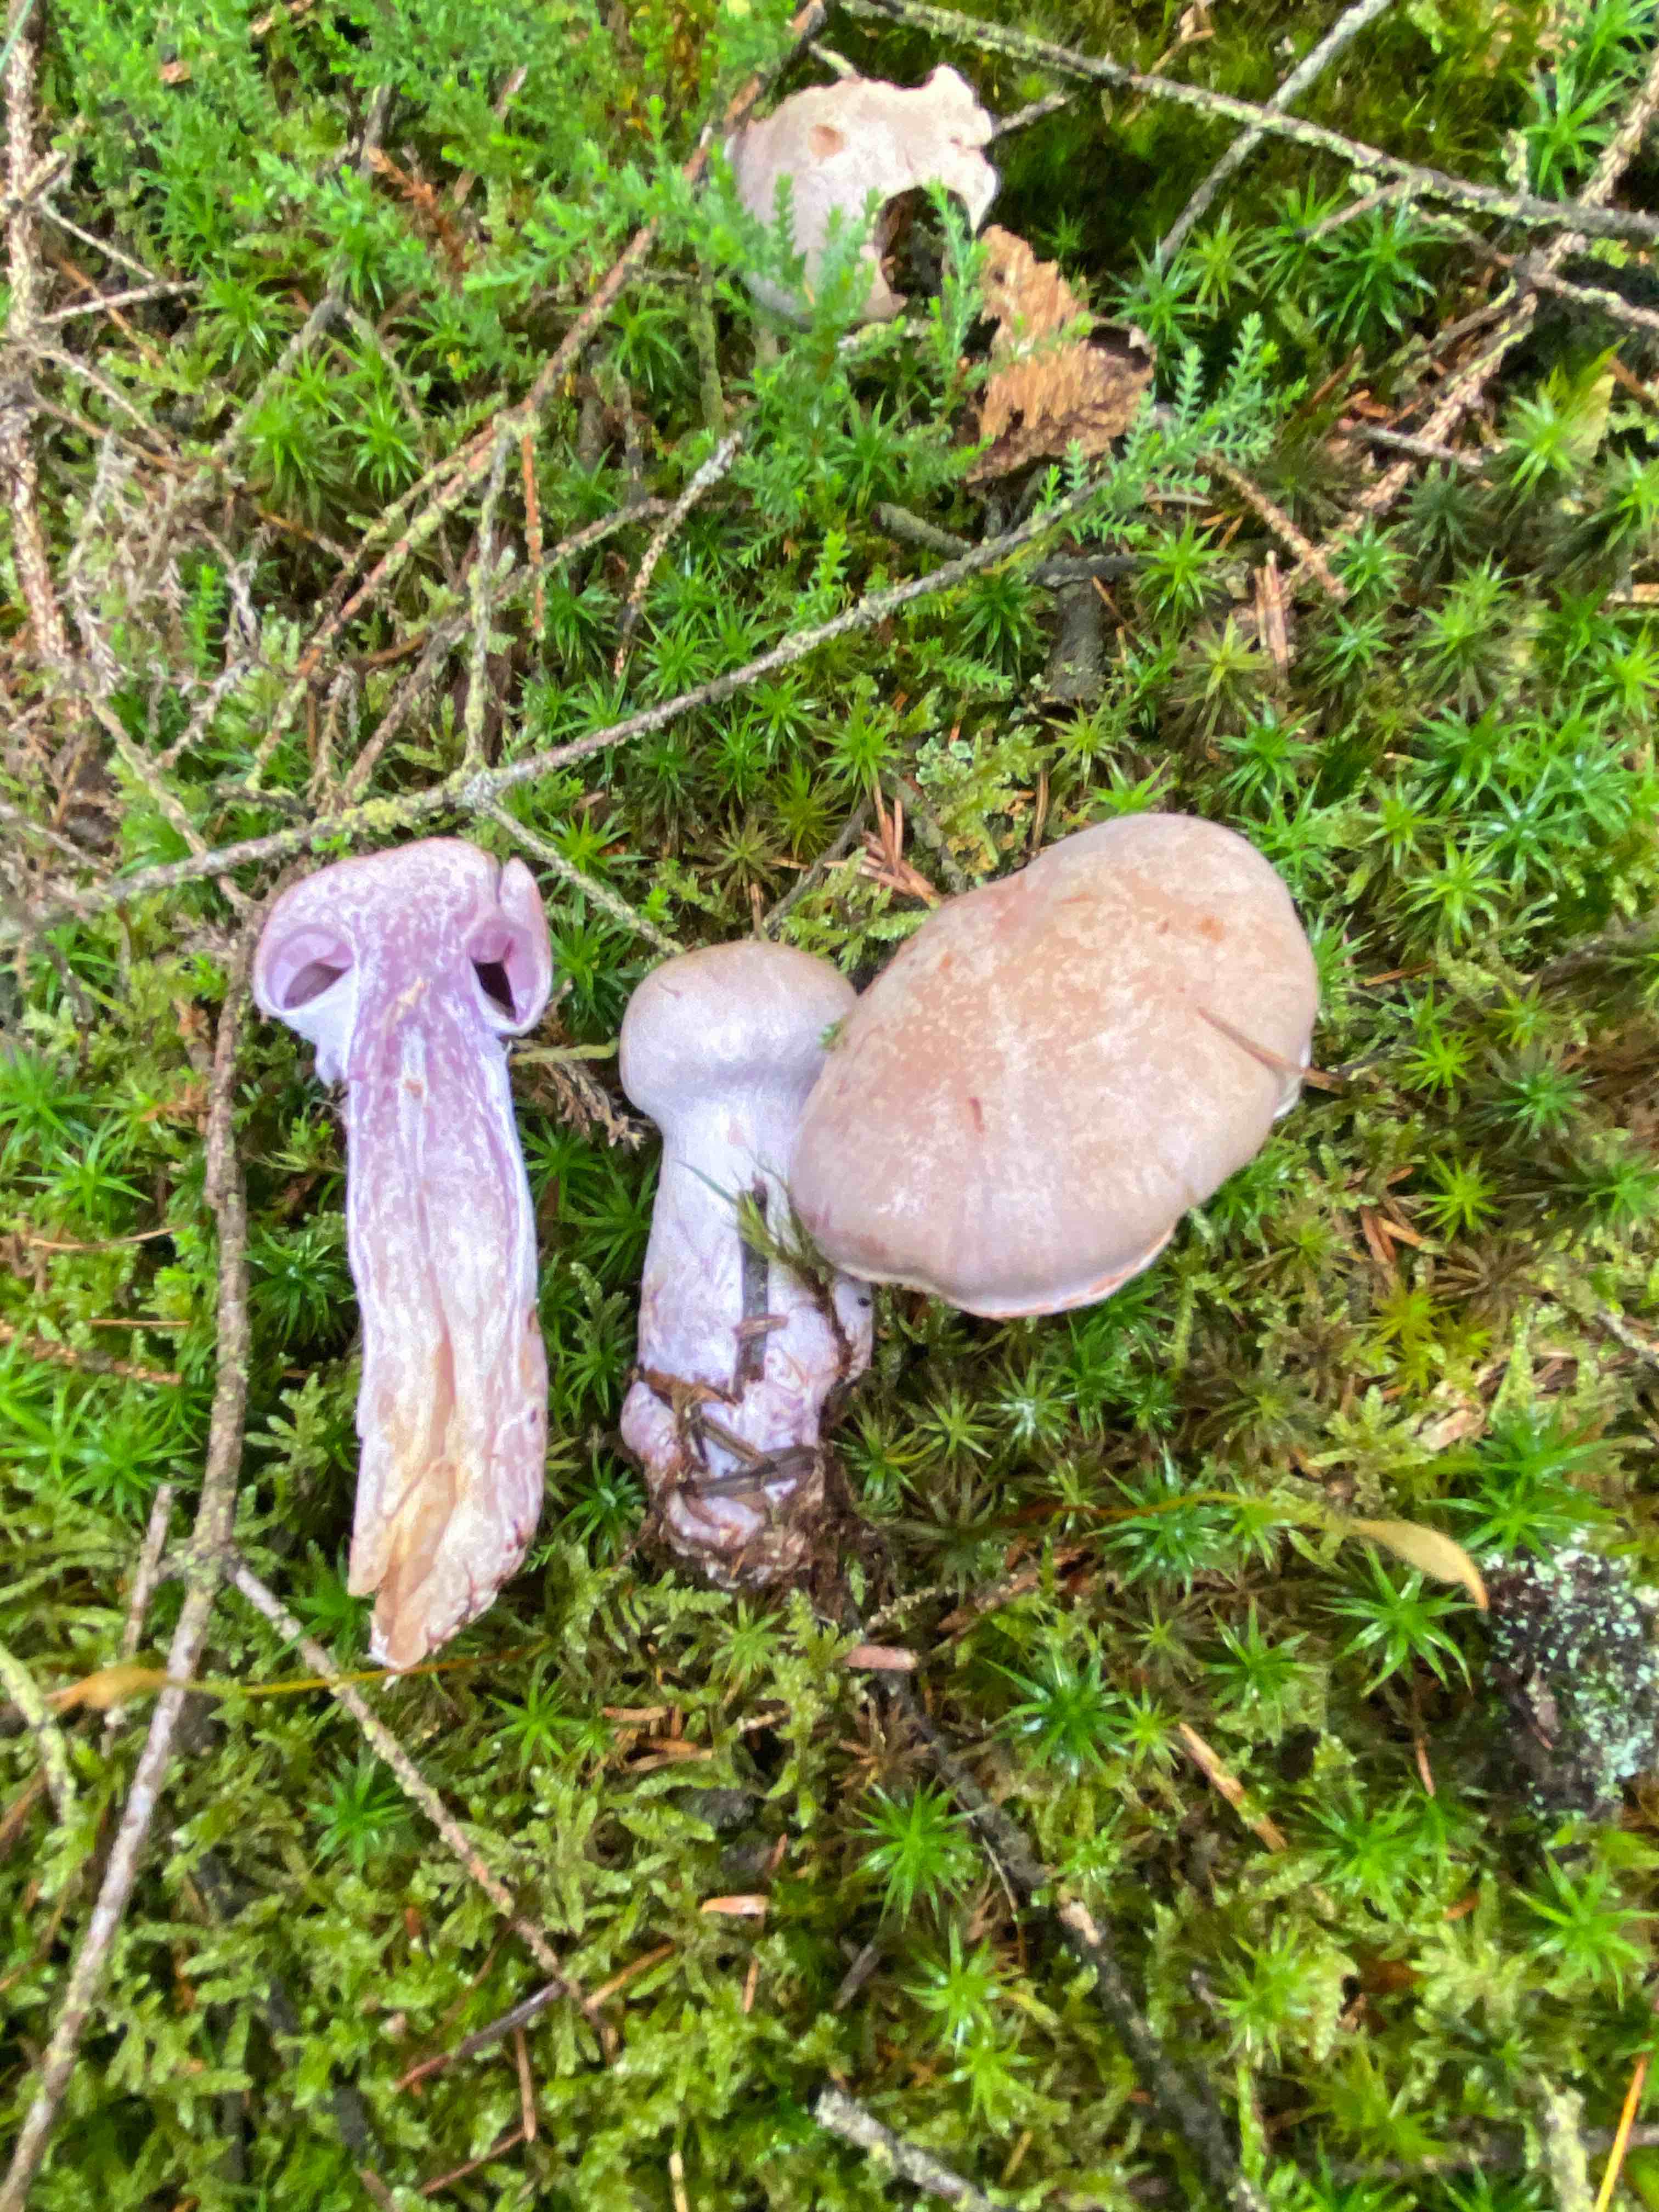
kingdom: Fungi
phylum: Basidiomycota
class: Agaricomycetes
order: Agaricales
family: Cortinariaceae
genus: Cortinarius
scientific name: Cortinarius camphoratus
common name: stinkende slørhat
